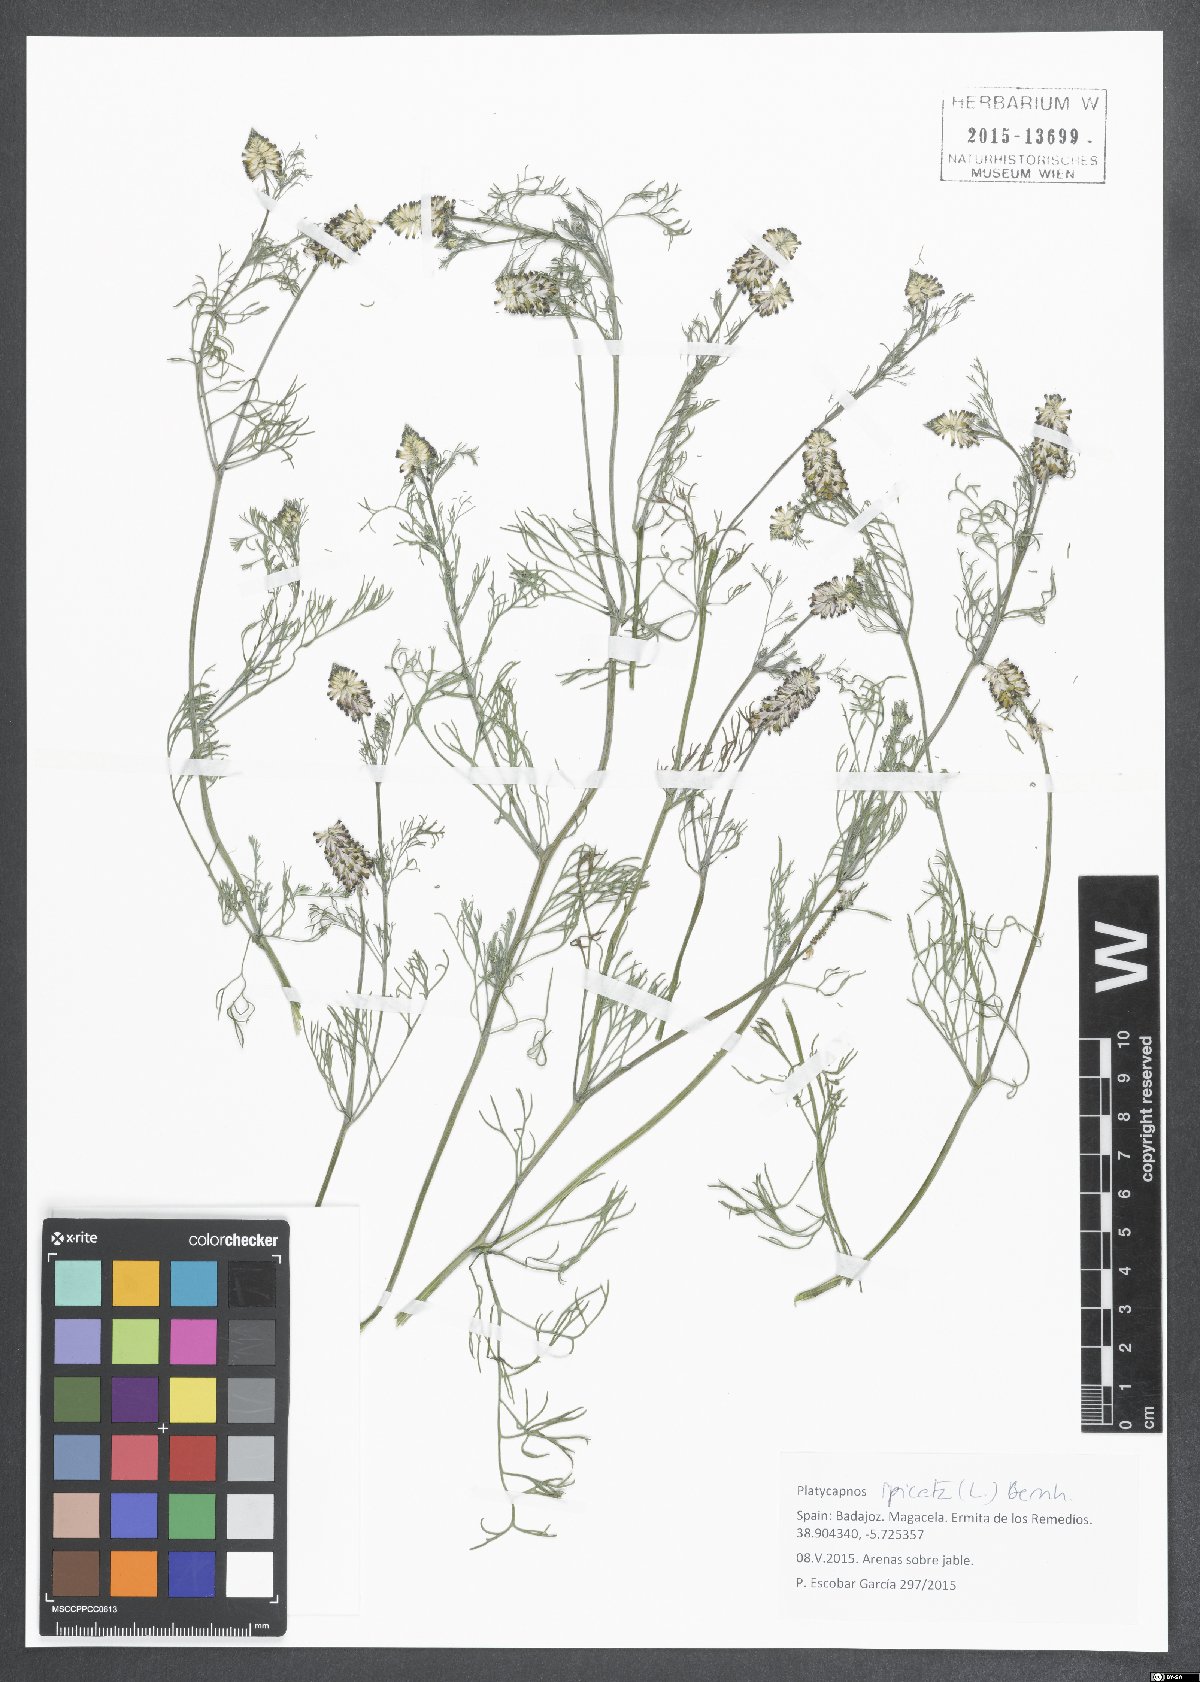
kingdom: Plantae
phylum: Tracheophyta
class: Magnoliopsida
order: Ranunculales
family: Papaveraceae
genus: Platycapnos
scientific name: Platycapnos spicata
